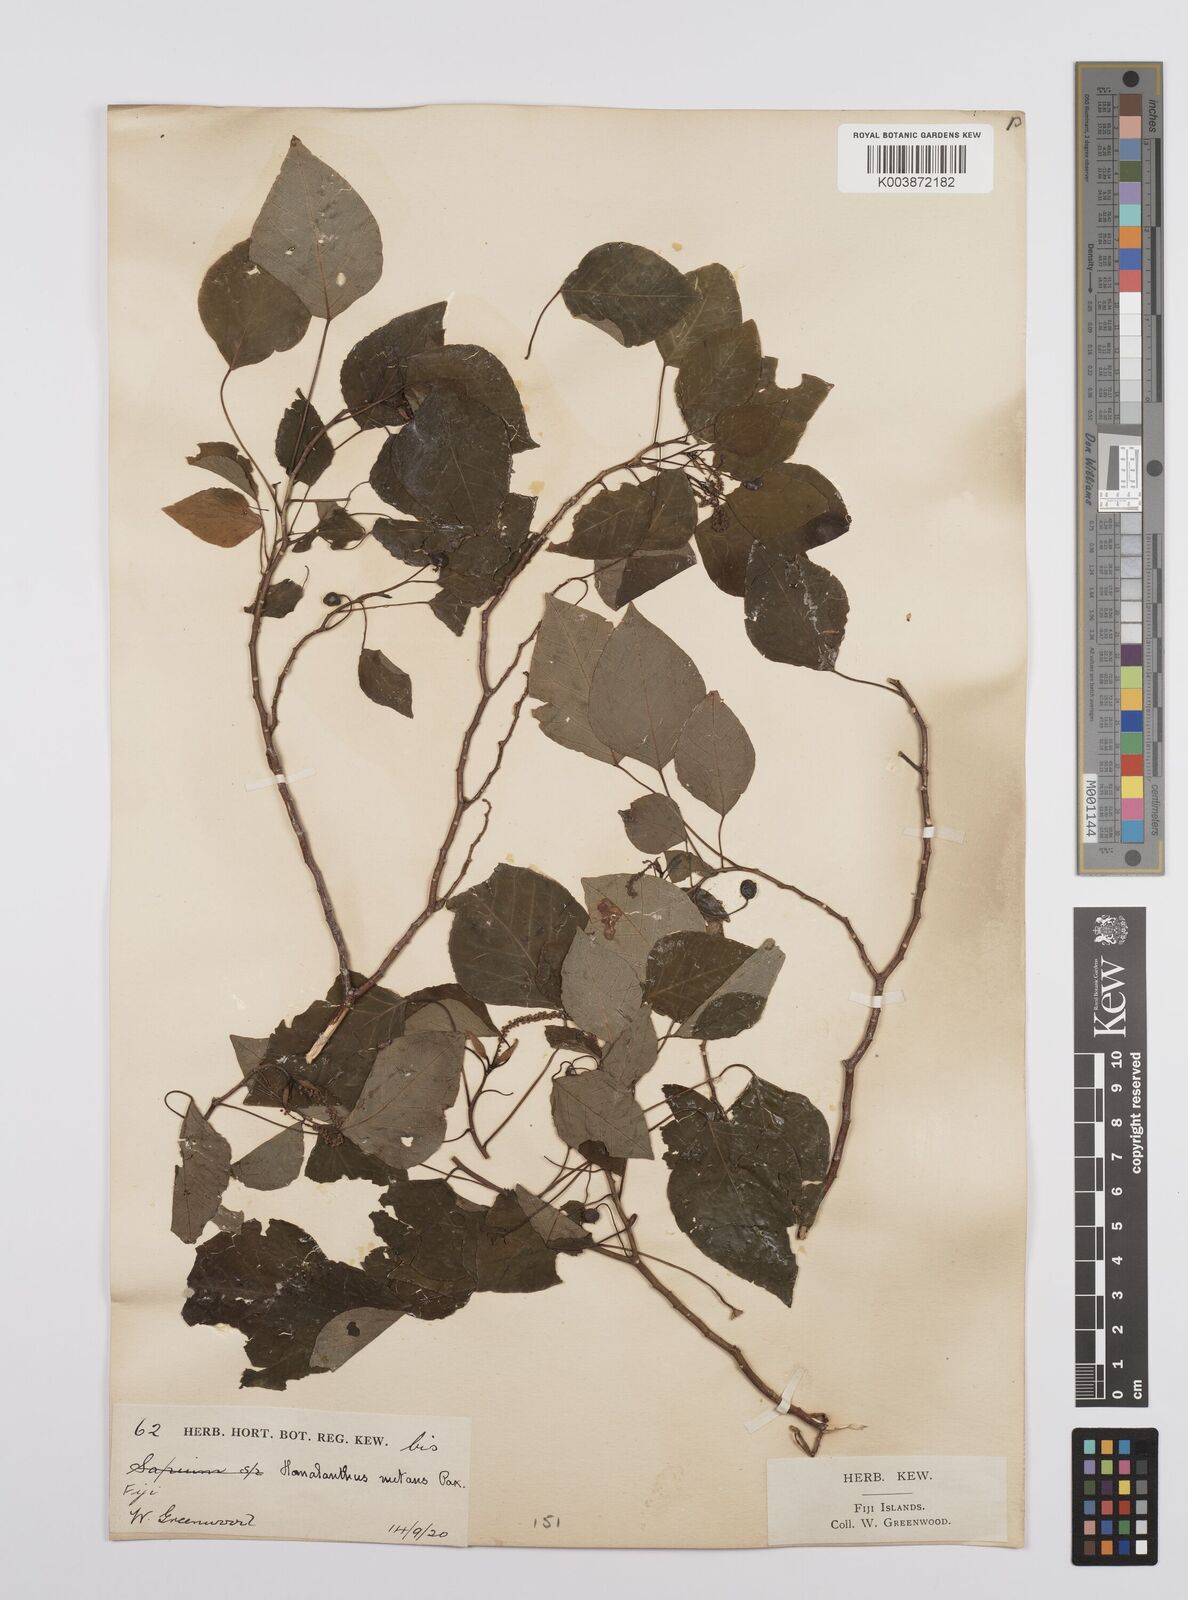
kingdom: Plantae
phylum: Tracheophyta
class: Magnoliopsida
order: Malpighiales
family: Euphorbiaceae
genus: Homalanthus
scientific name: Homalanthus nutans
